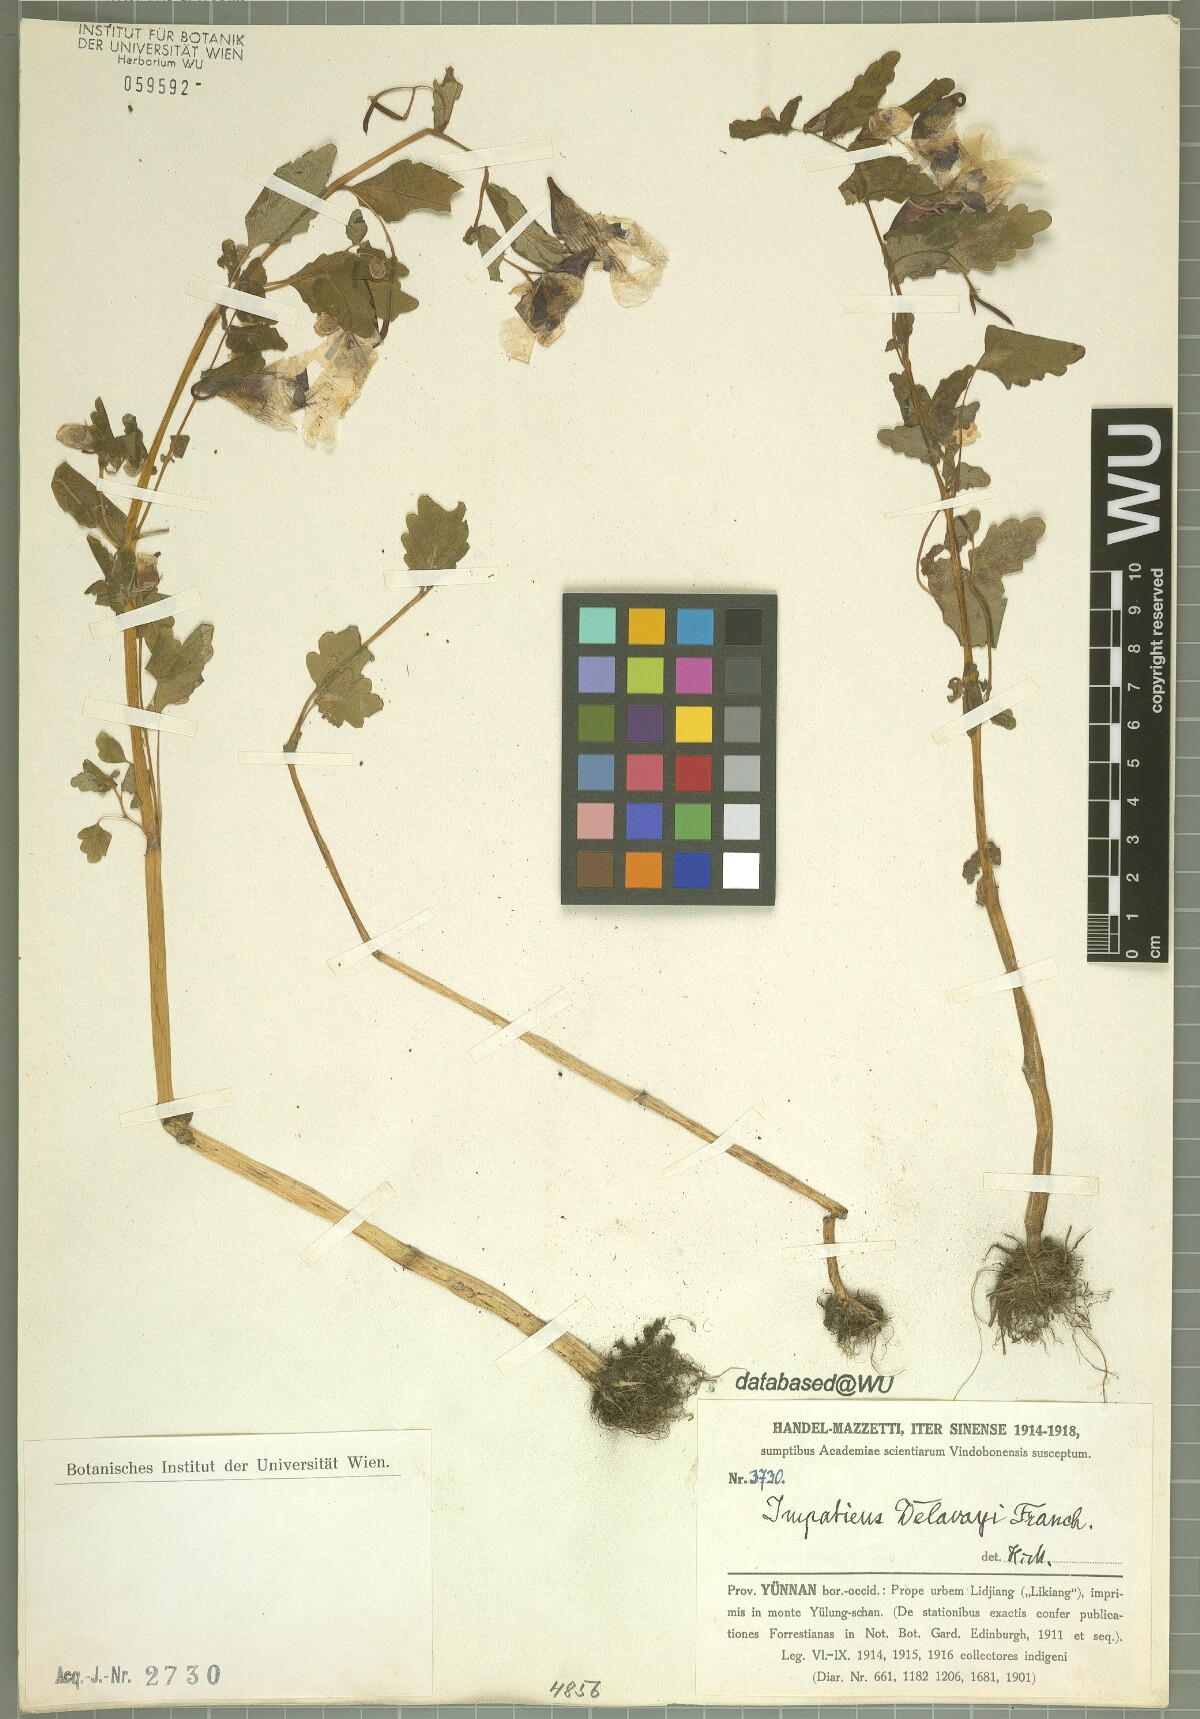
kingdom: Plantae
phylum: Tracheophyta
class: Magnoliopsida
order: Ericales
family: Balsaminaceae
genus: Impatiens
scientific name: Impatiens delavayi
